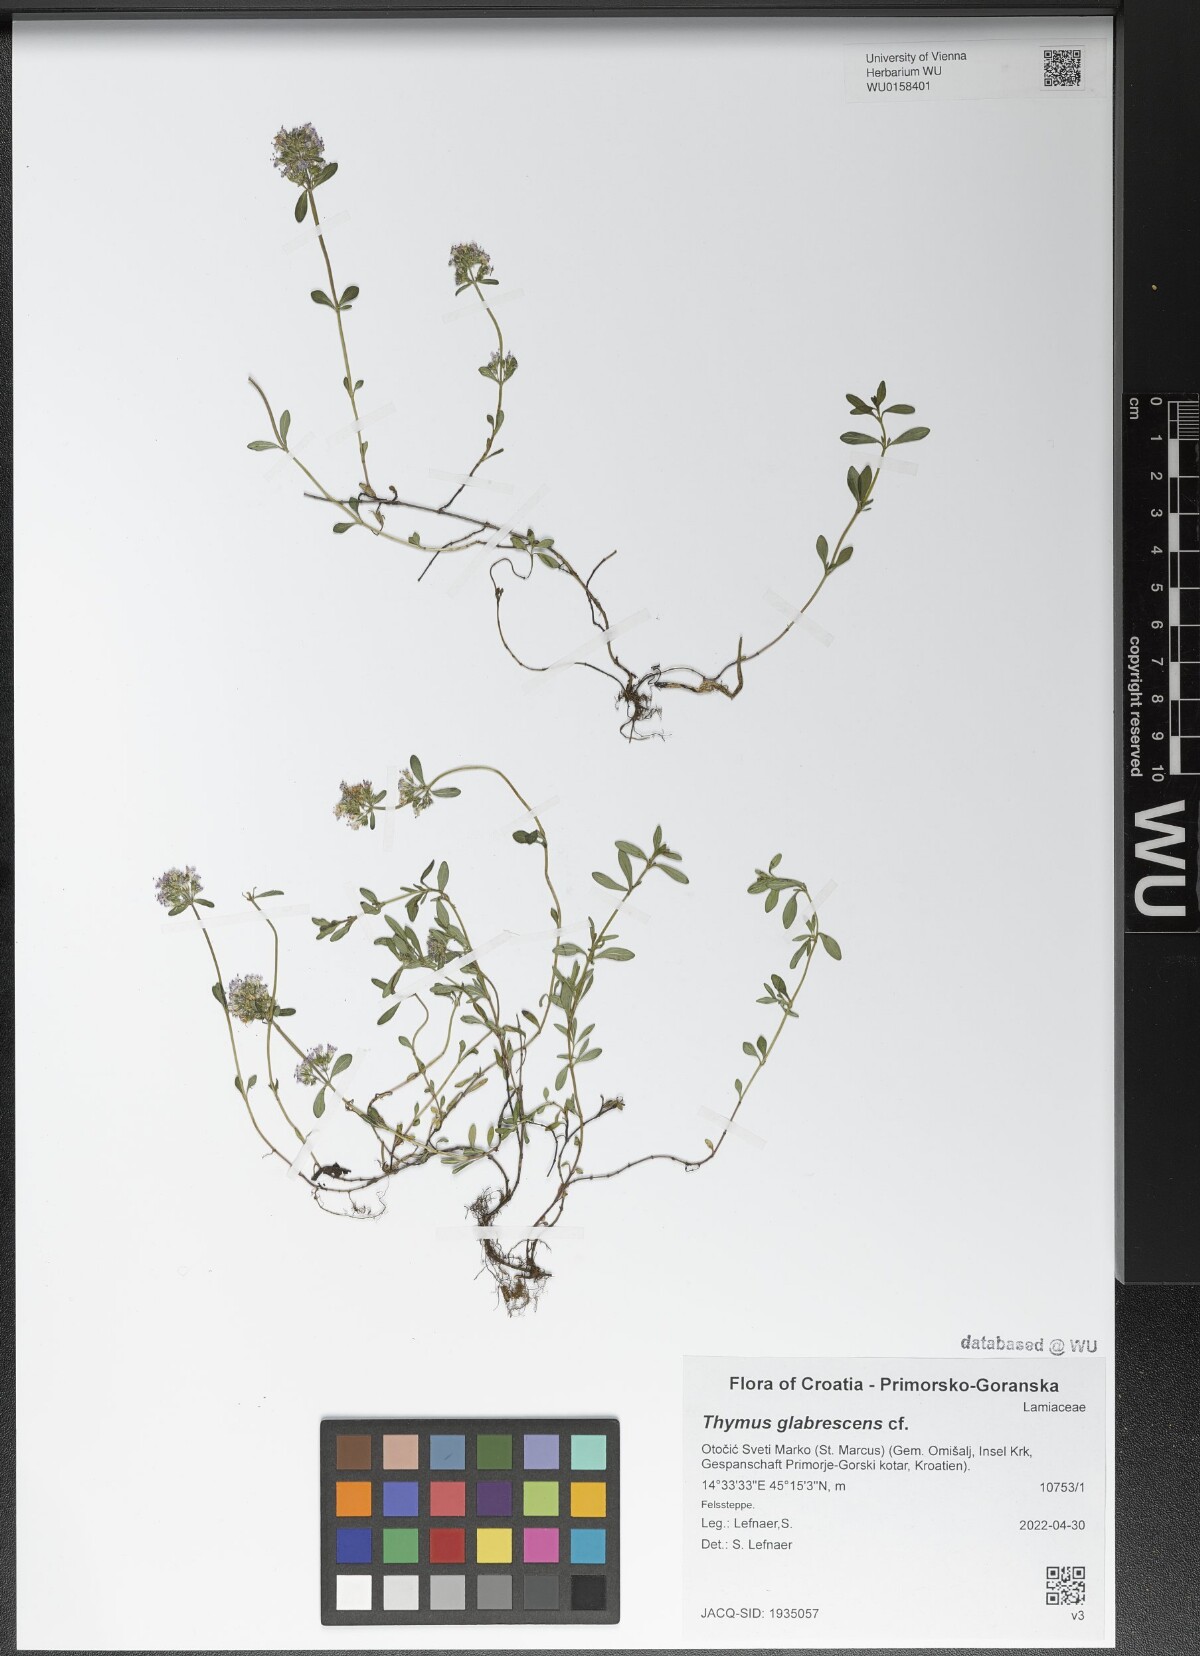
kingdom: Plantae
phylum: Tracheophyta
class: Magnoliopsida
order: Lamiales
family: Lamiaceae
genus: Thymus
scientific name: Thymus odoratissimus
